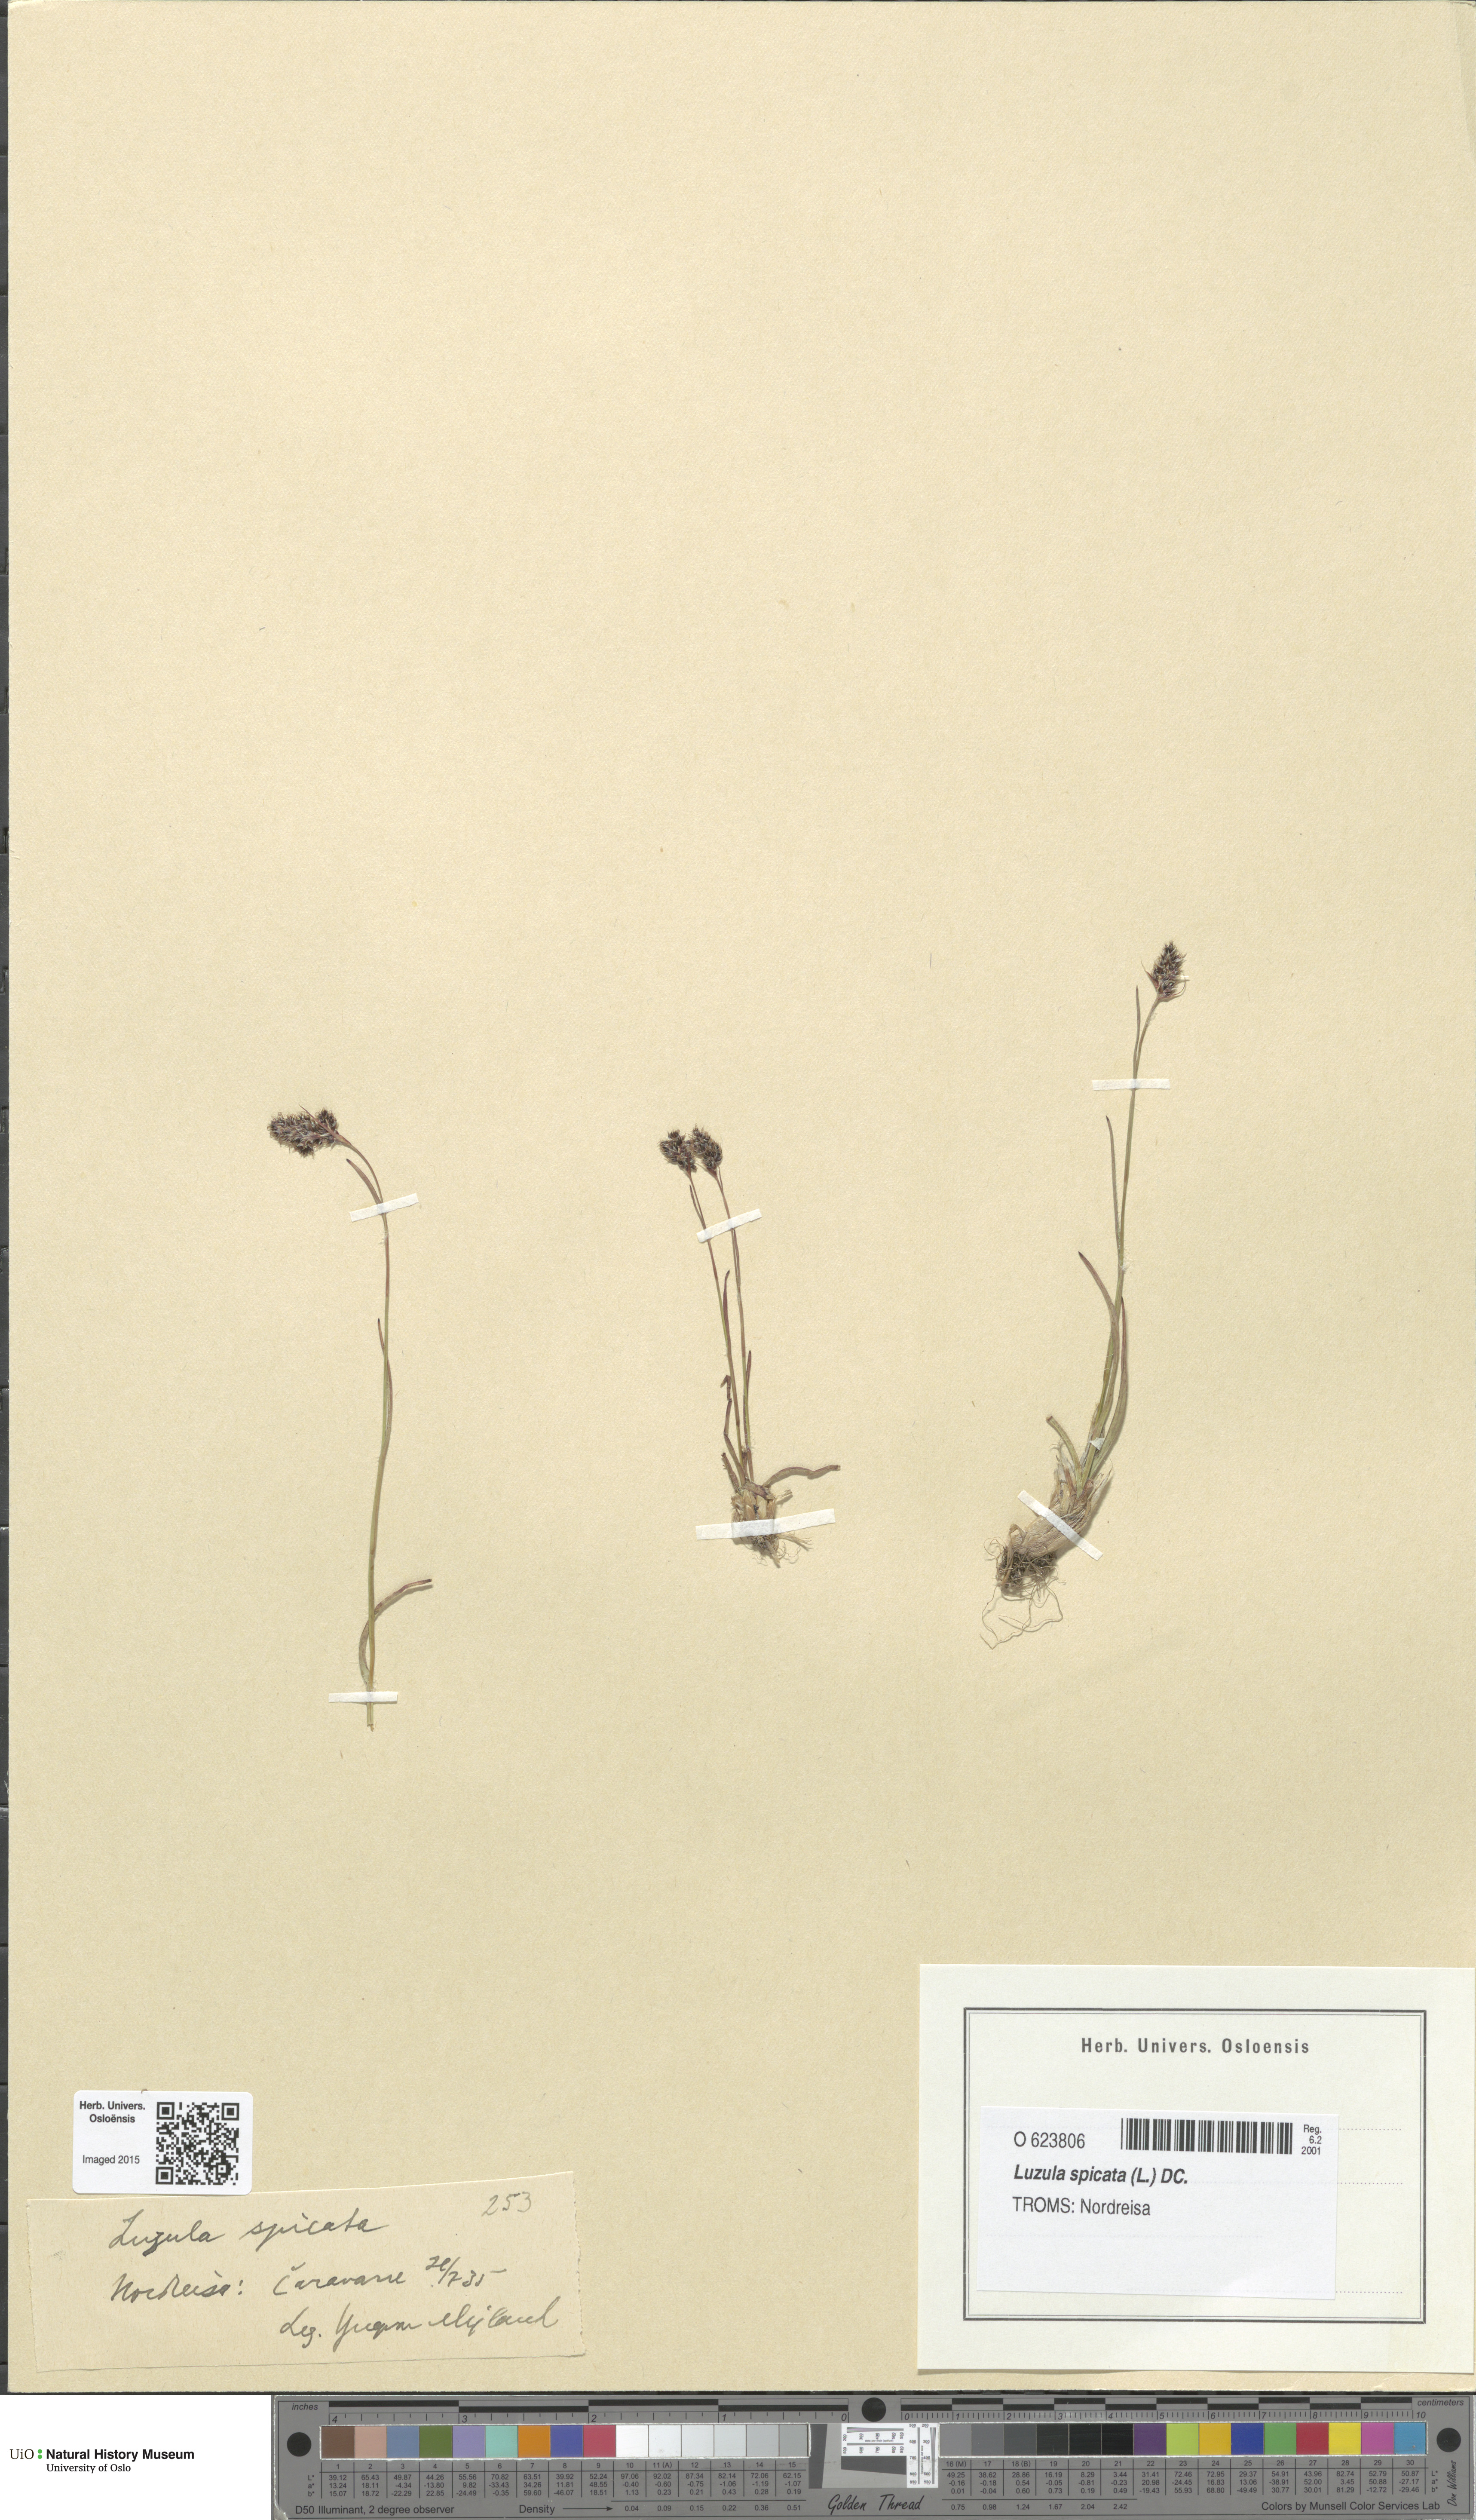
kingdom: Plantae
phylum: Tracheophyta
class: Liliopsida
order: Poales
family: Juncaceae
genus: Luzula
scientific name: Luzula spicata
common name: Spiked wood-rush
